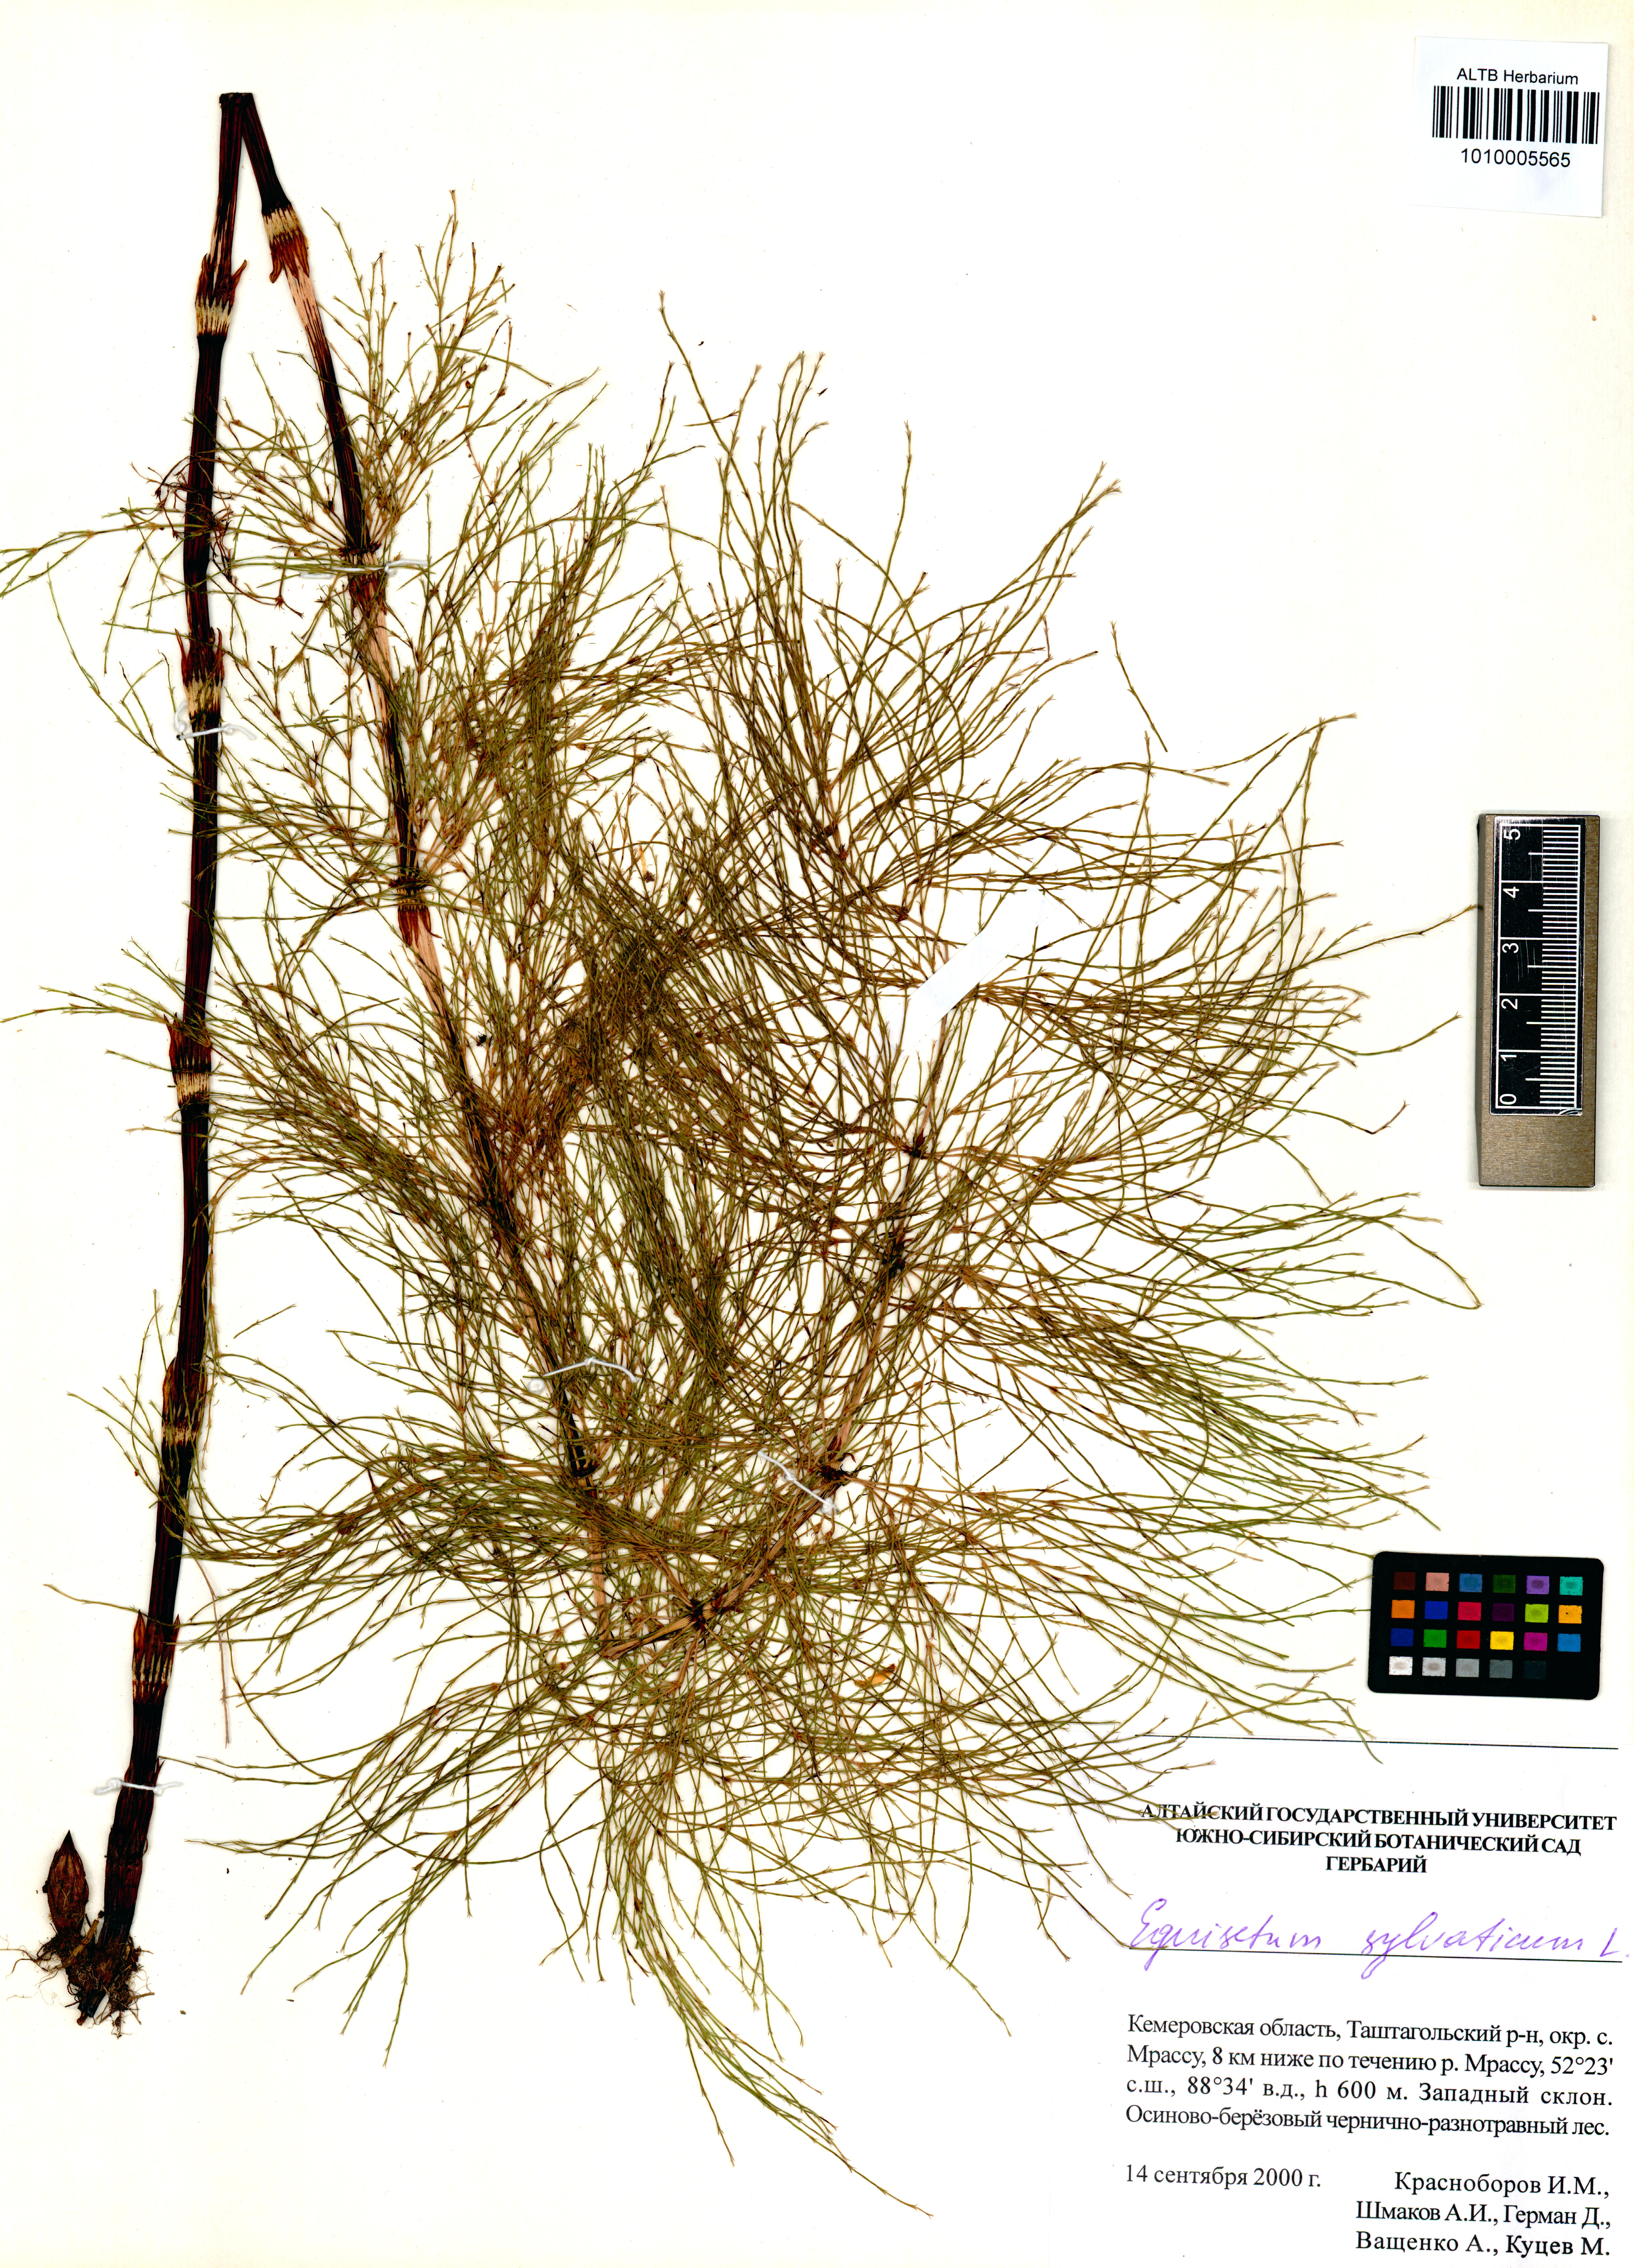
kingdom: Plantae
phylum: Tracheophyta
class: Polypodiopsida
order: Equisetales
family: Equisetaceae
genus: Equisetum
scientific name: Equisetum sylvaticum
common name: Wood horsetail
